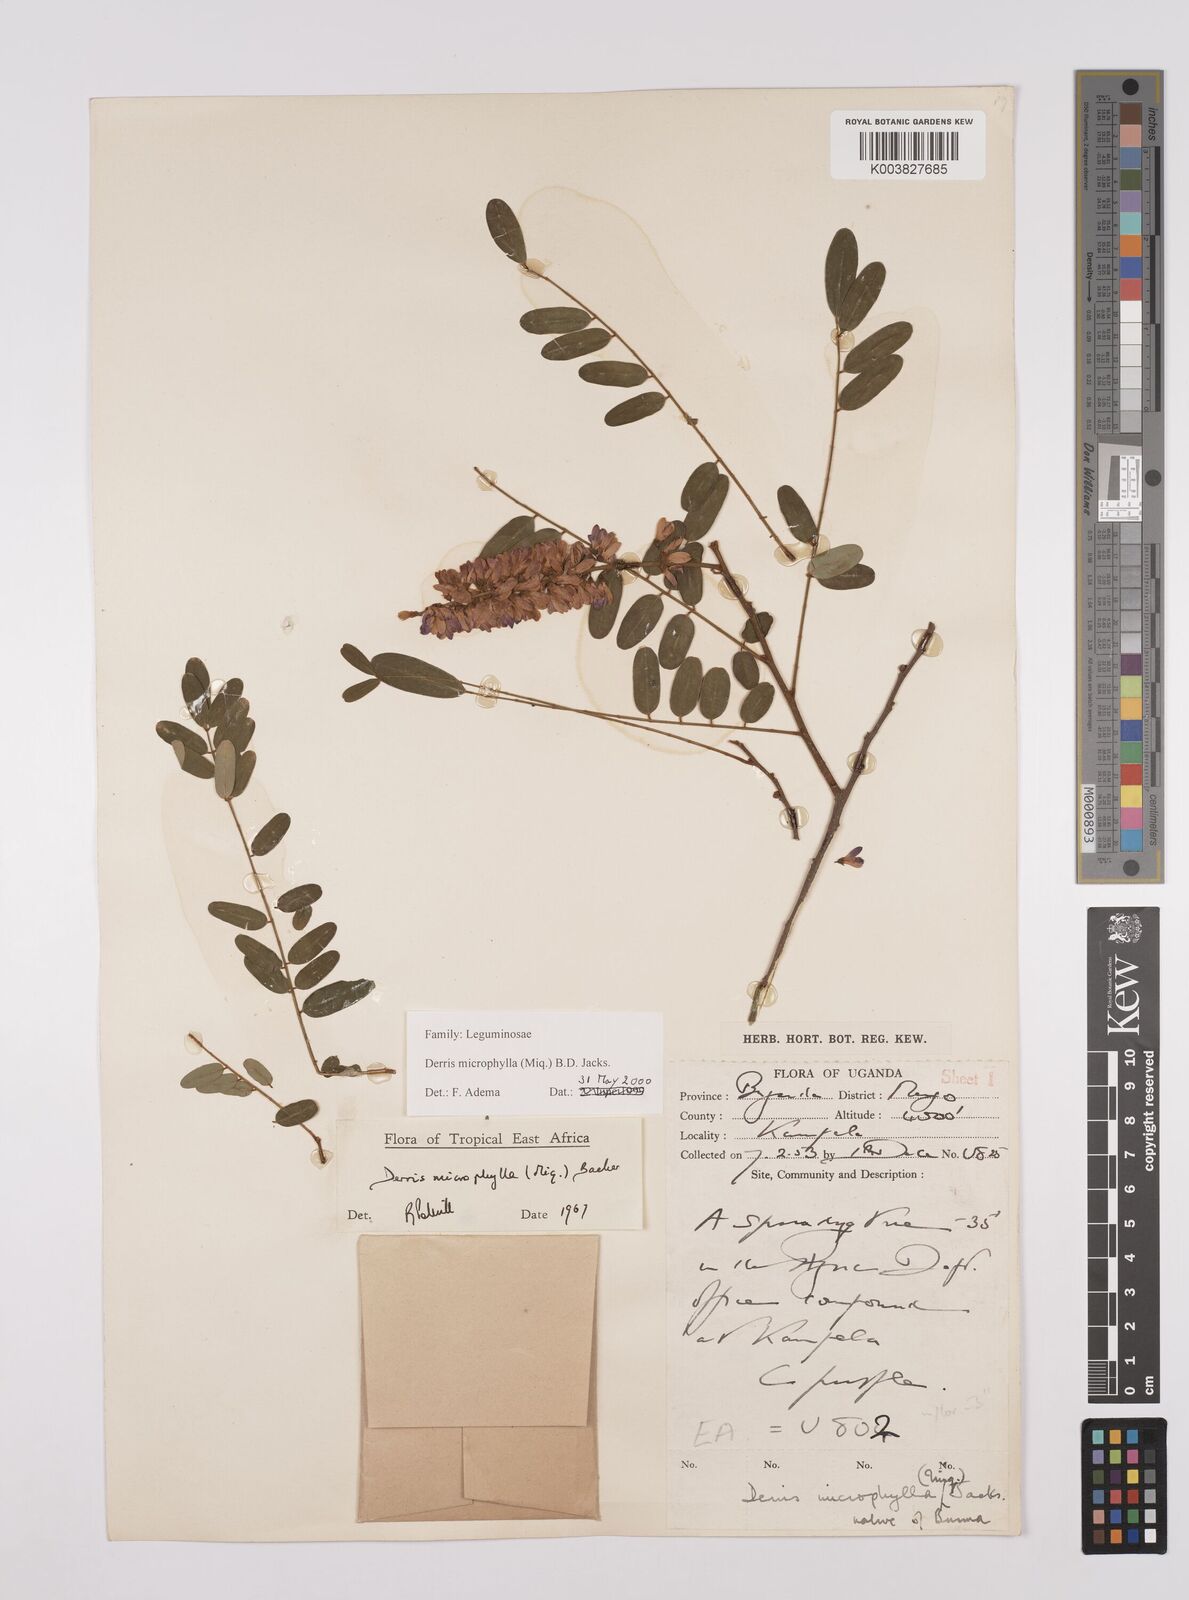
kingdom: Plantae
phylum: Tracheophyta
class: Magnoliopsida
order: Fabales
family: Fabaceae
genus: Brachypterum
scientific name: Brachypterum microphyllum
